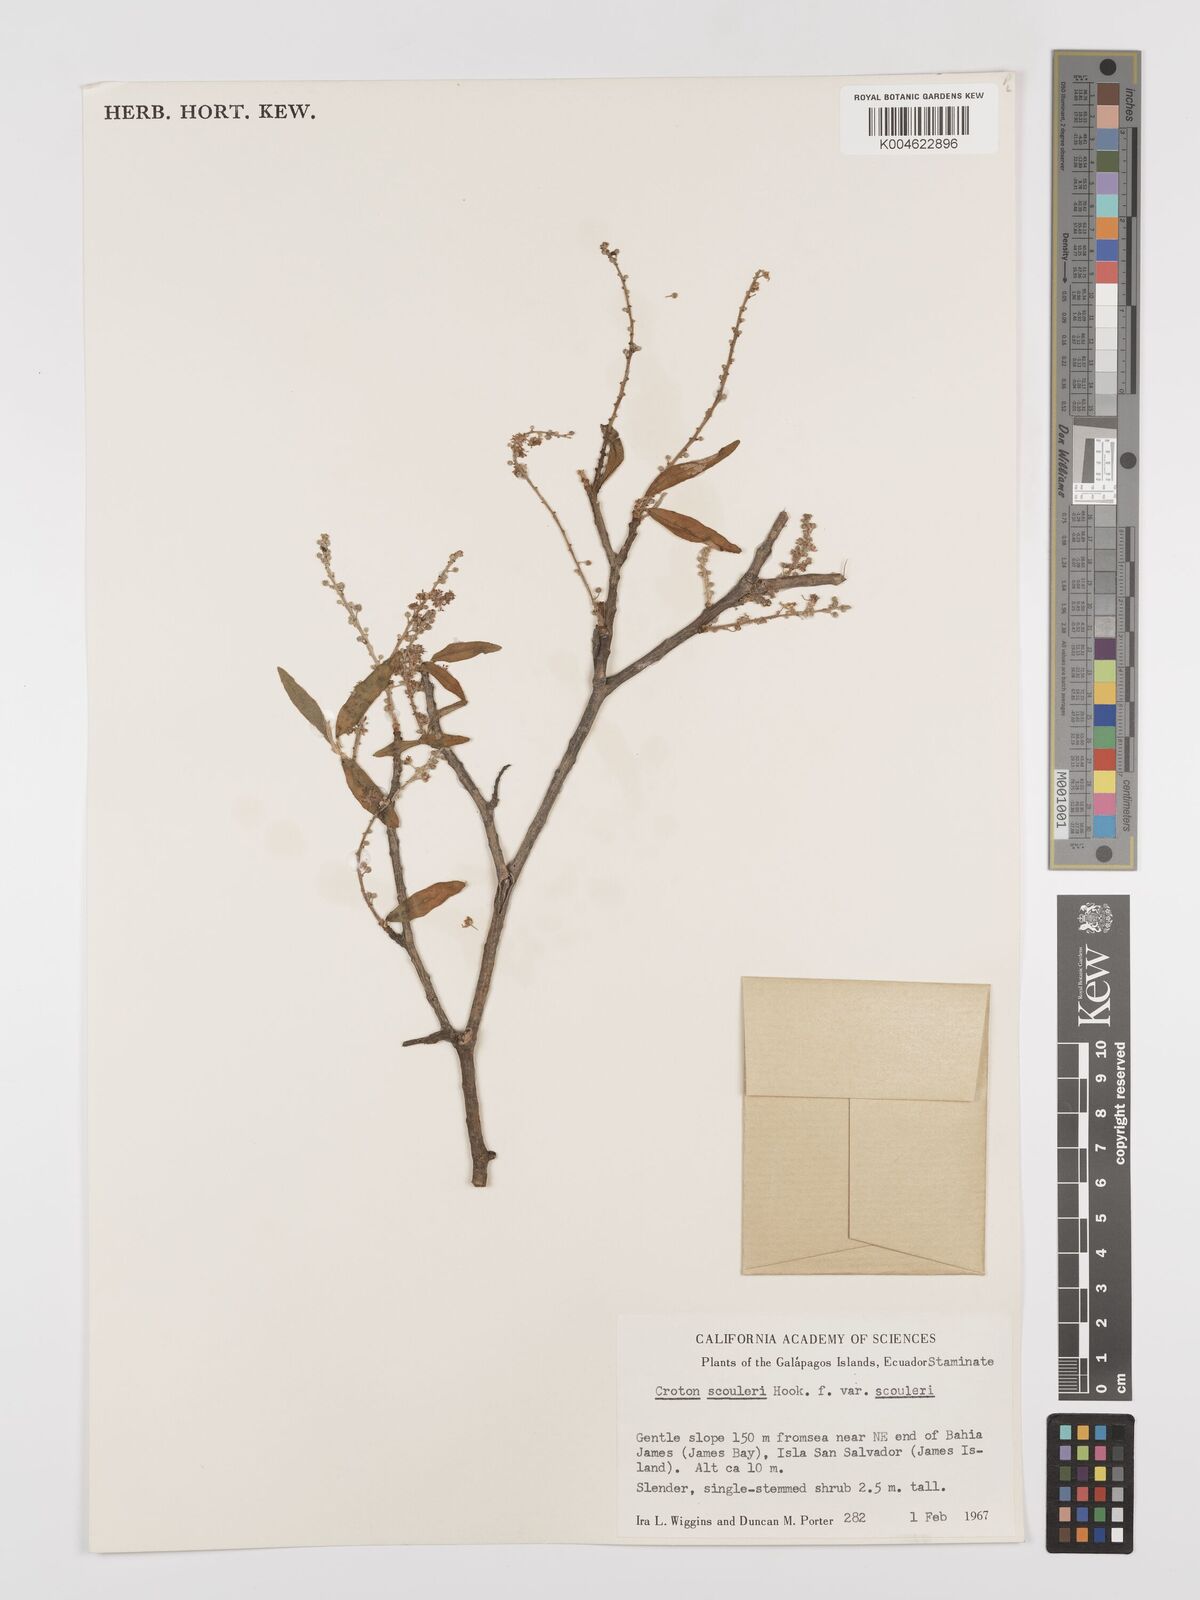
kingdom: Plantae
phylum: Tracheophyta
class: Magnoliopsida
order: Malpighiales
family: Euphorbiaceae
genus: Croton
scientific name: Croton scouleri
